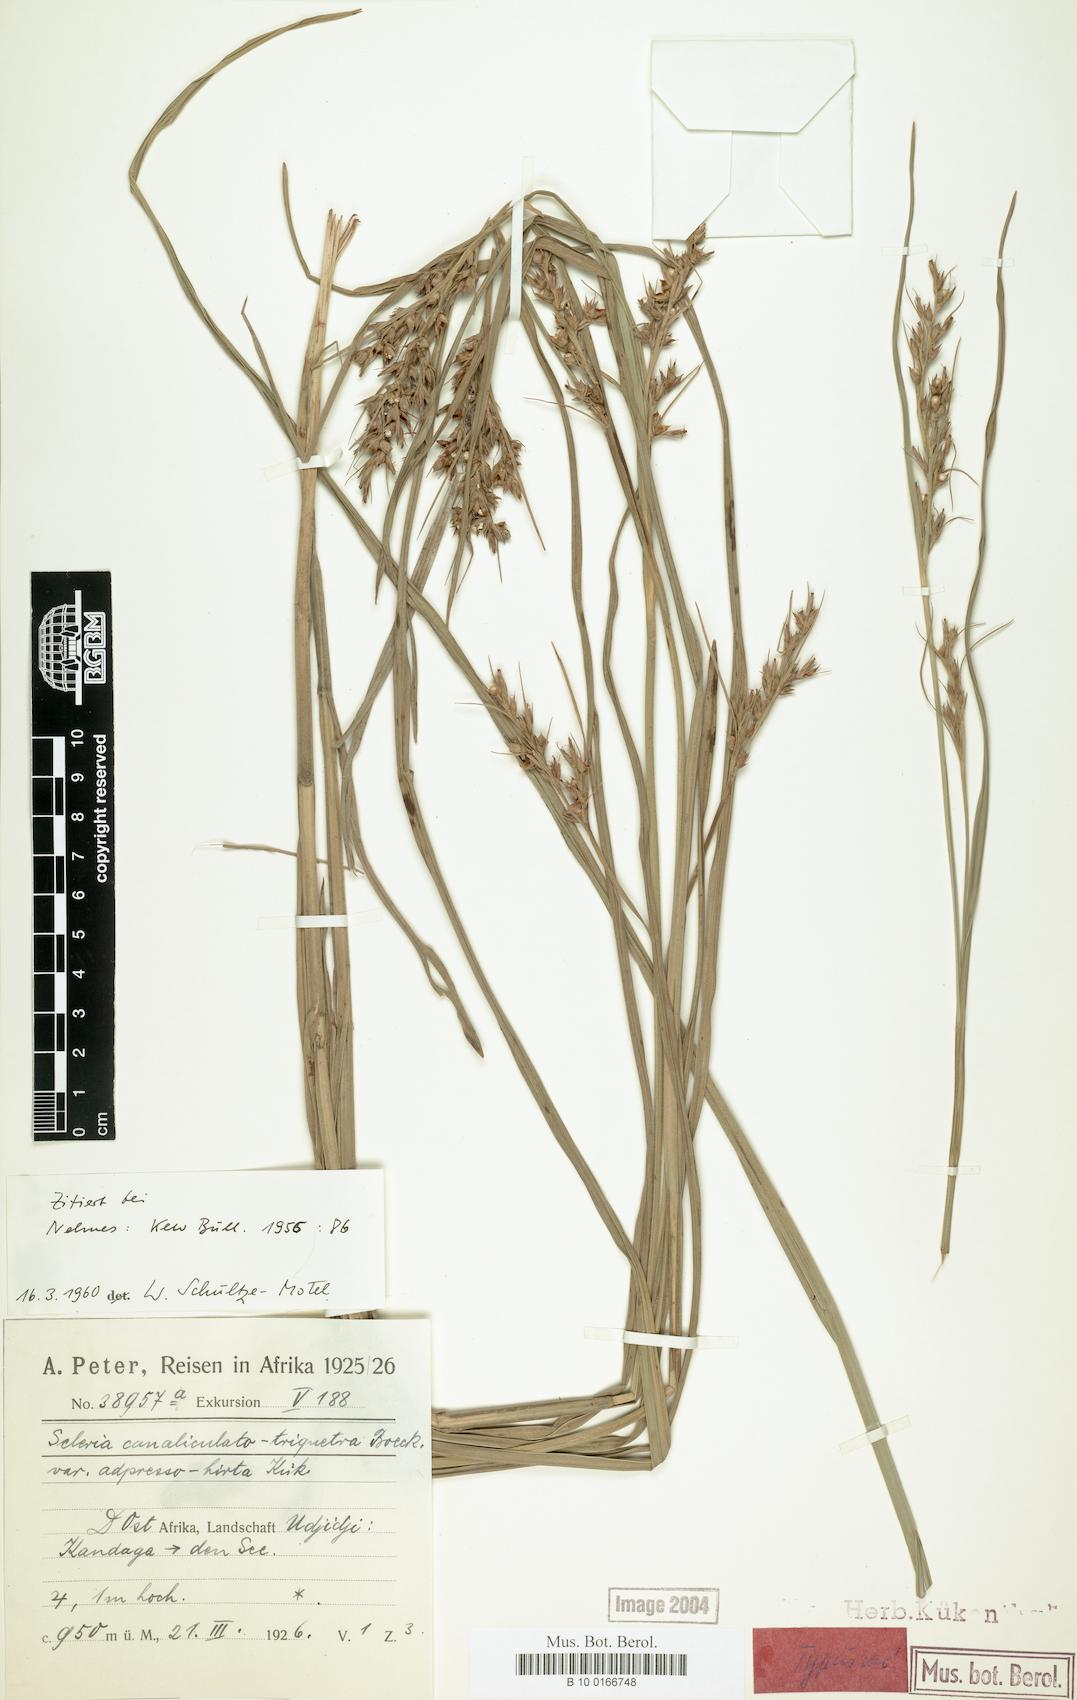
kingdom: Plantae
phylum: Tracheophyta
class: Liliopsida
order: Poales
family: Cyperaceae
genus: Scleria
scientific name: Scleria adpressohirta
